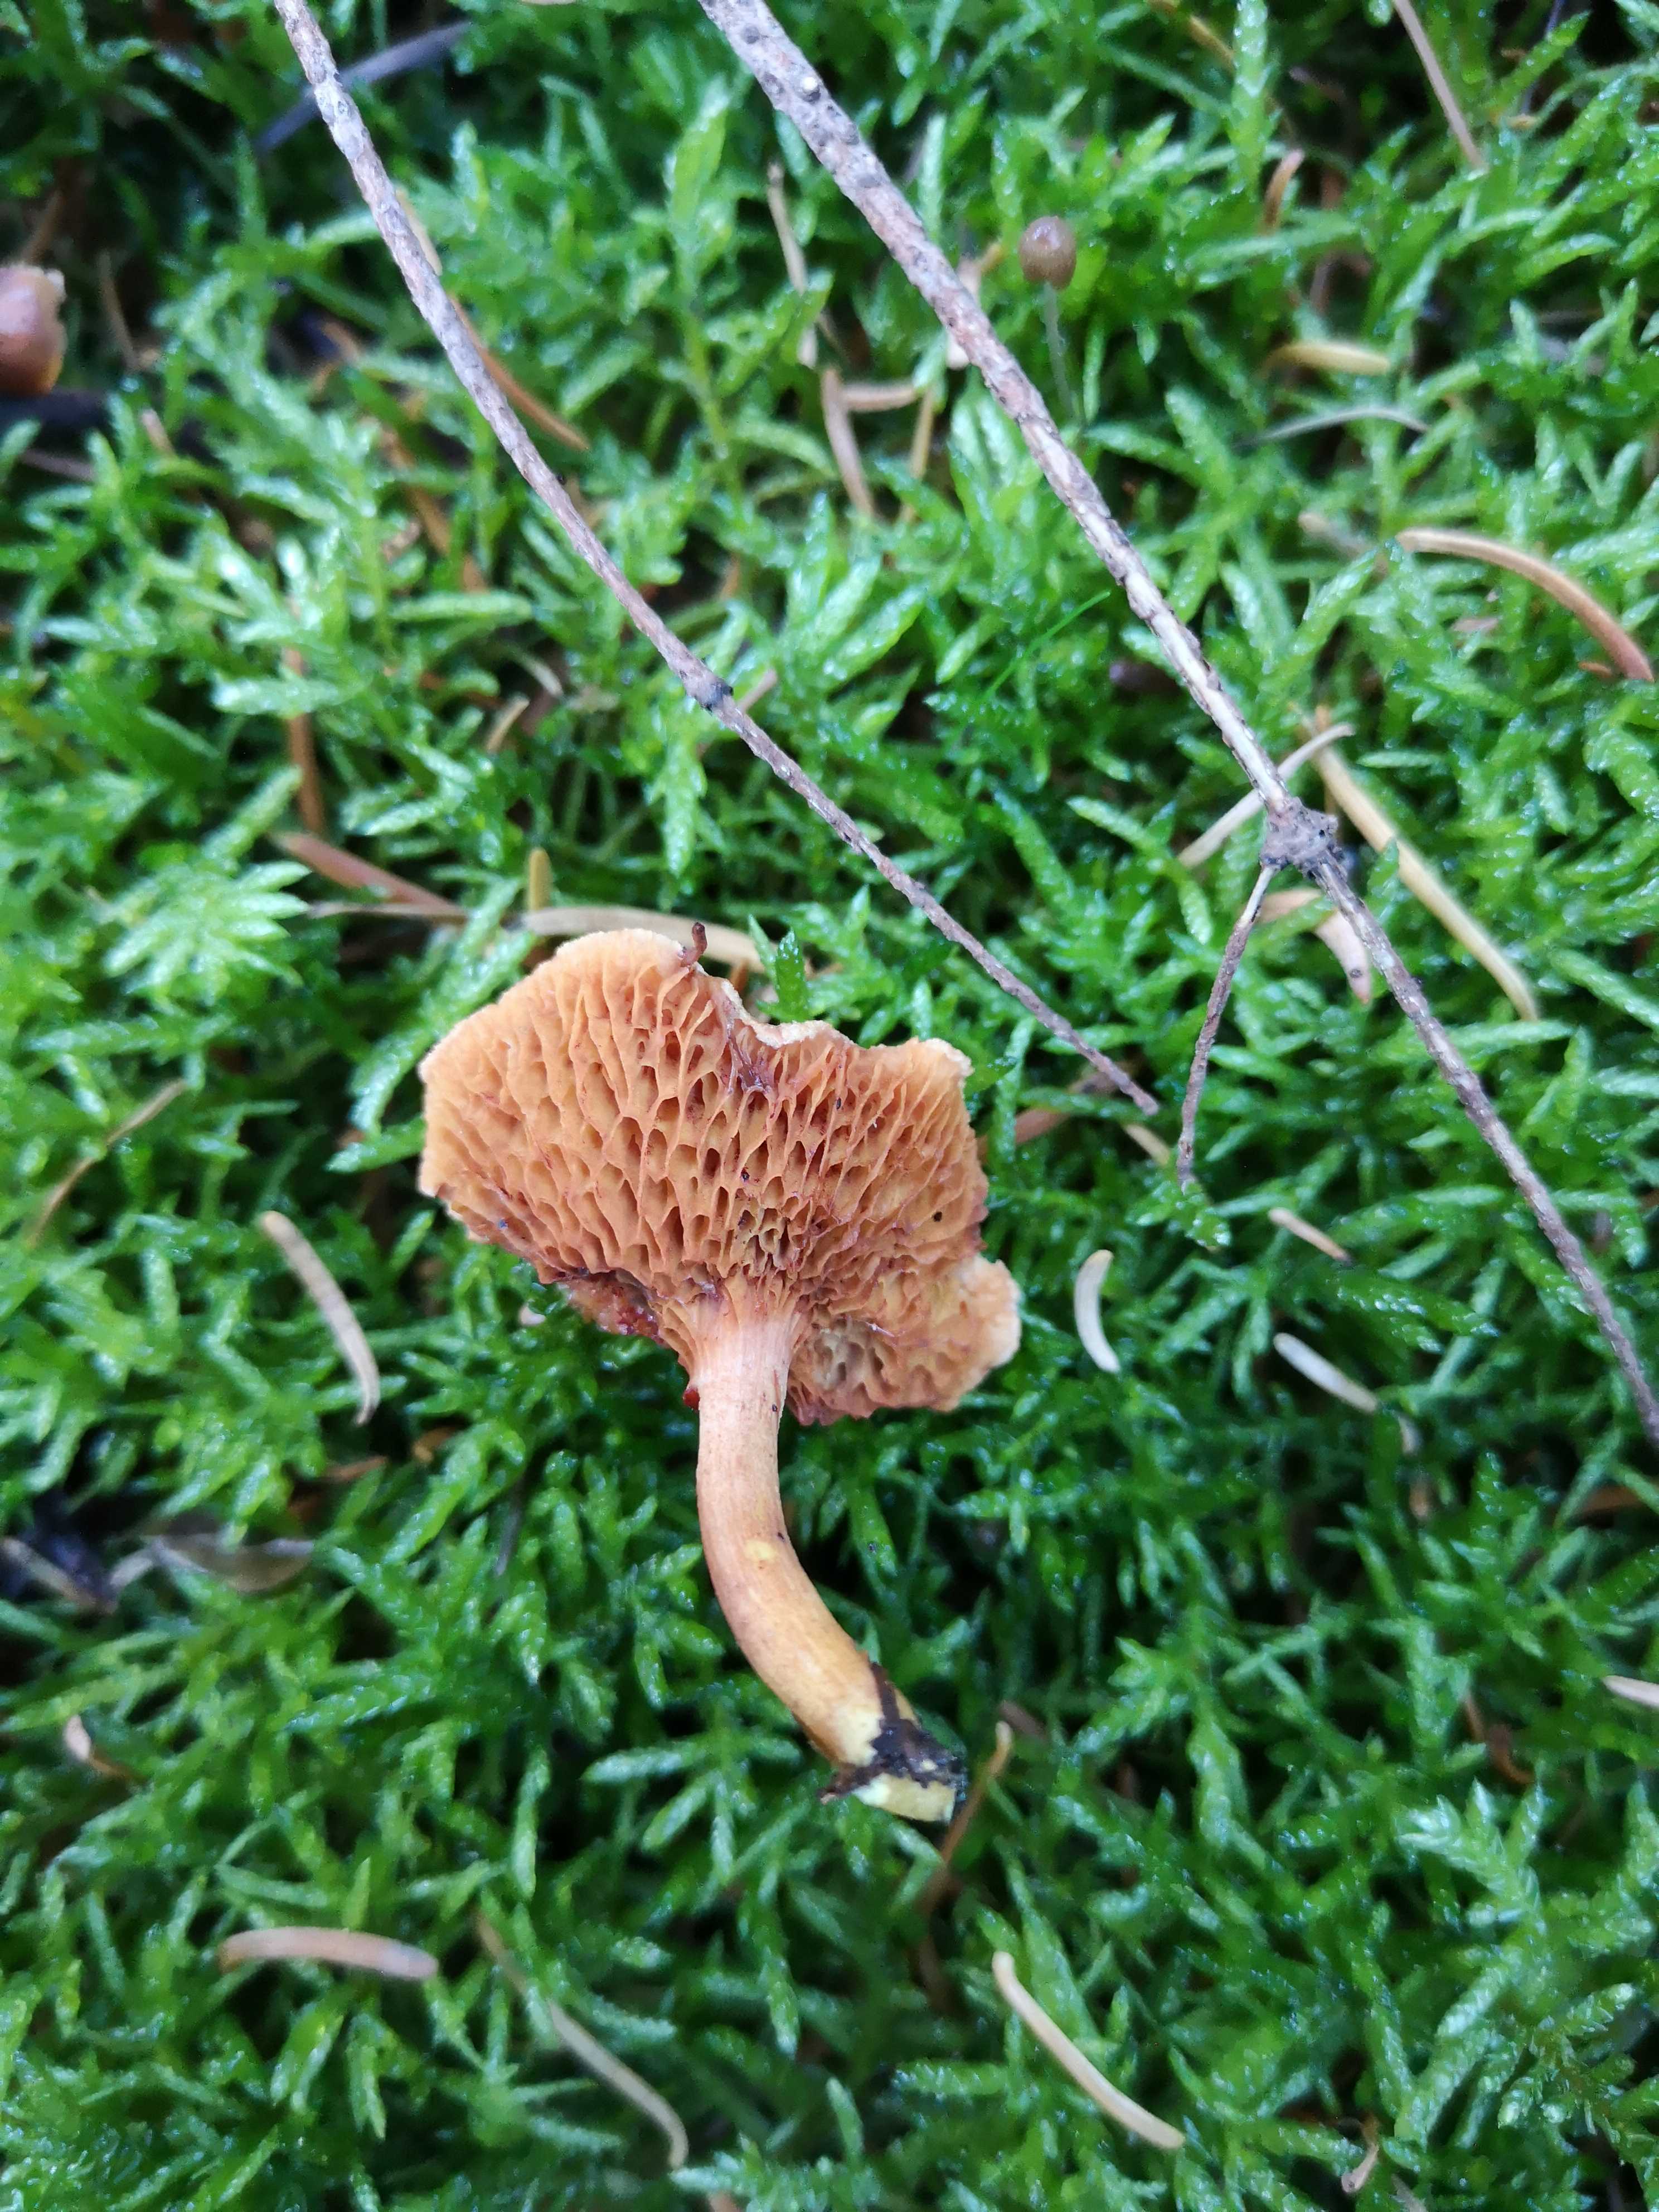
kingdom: Fungi
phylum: Basidiomycota
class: Agaricomycetes
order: Boletales
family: Boletaceae
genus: Chalciporus
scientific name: Chalciporus piperatus
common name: peberrørhat
